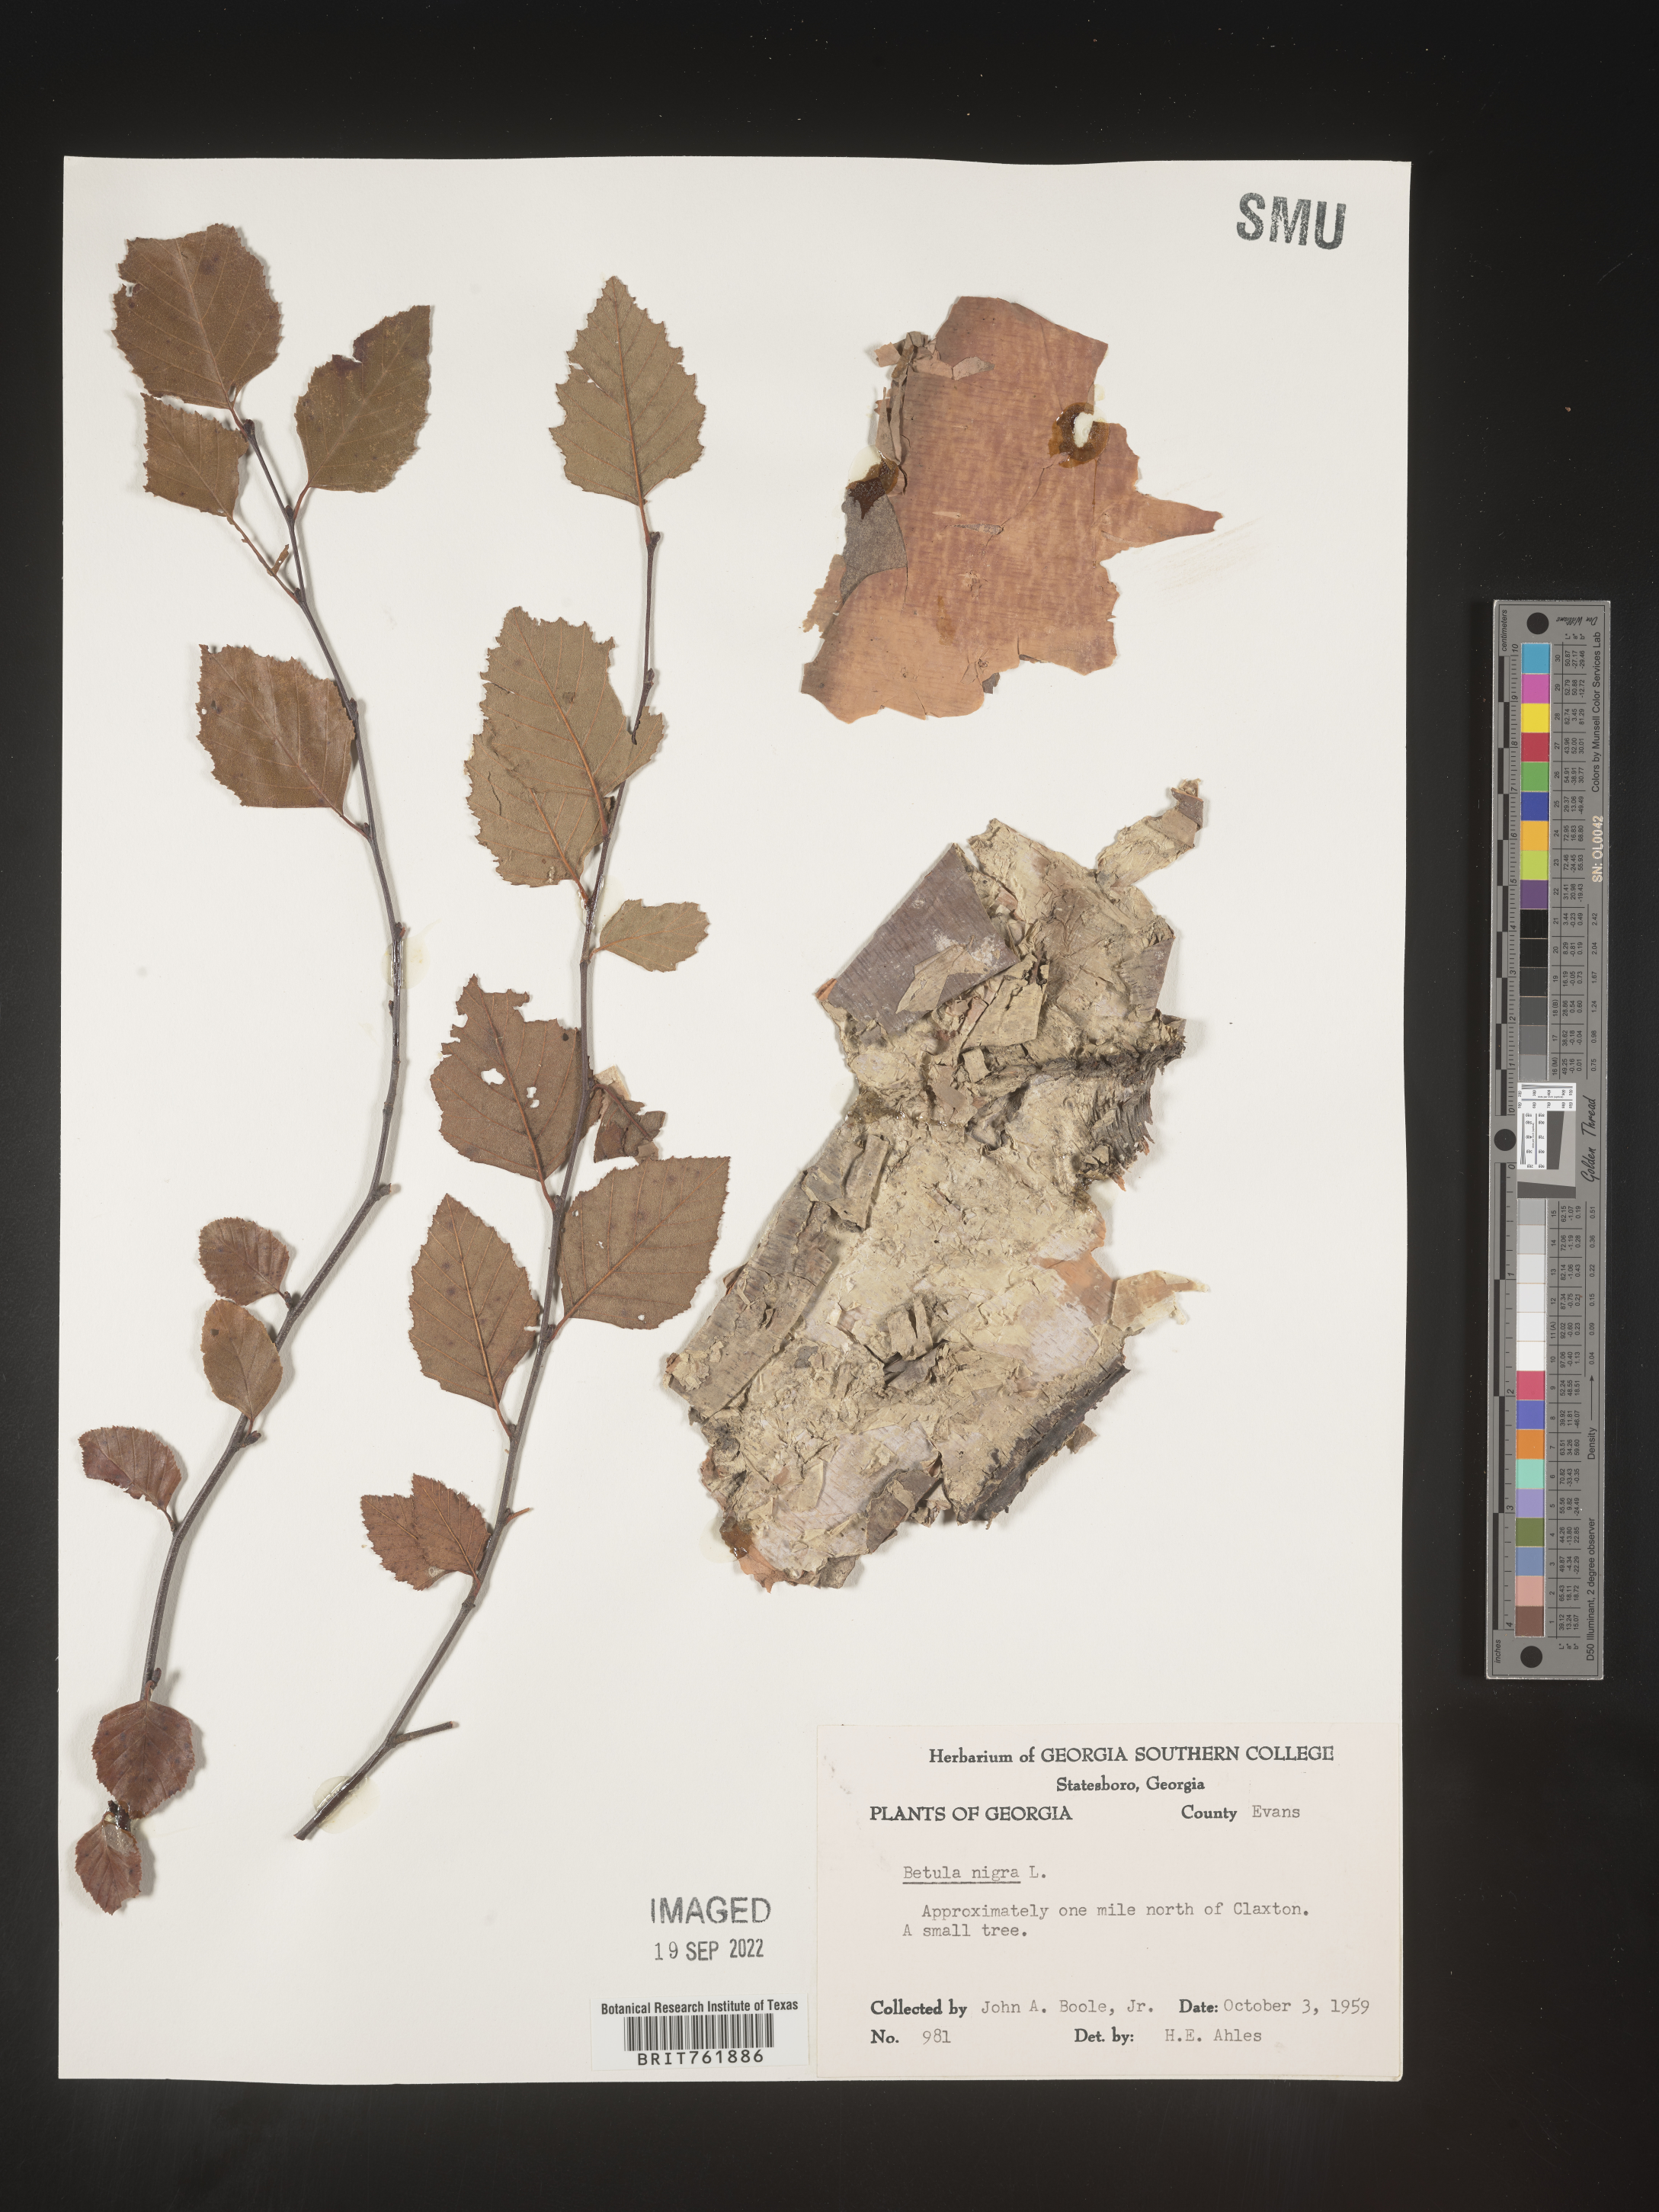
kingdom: Plantae
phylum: Tracheophyta
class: Magnoliopsida
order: Fagales
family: Betulaceae
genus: Betula
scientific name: Betula nigra
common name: Black birch
